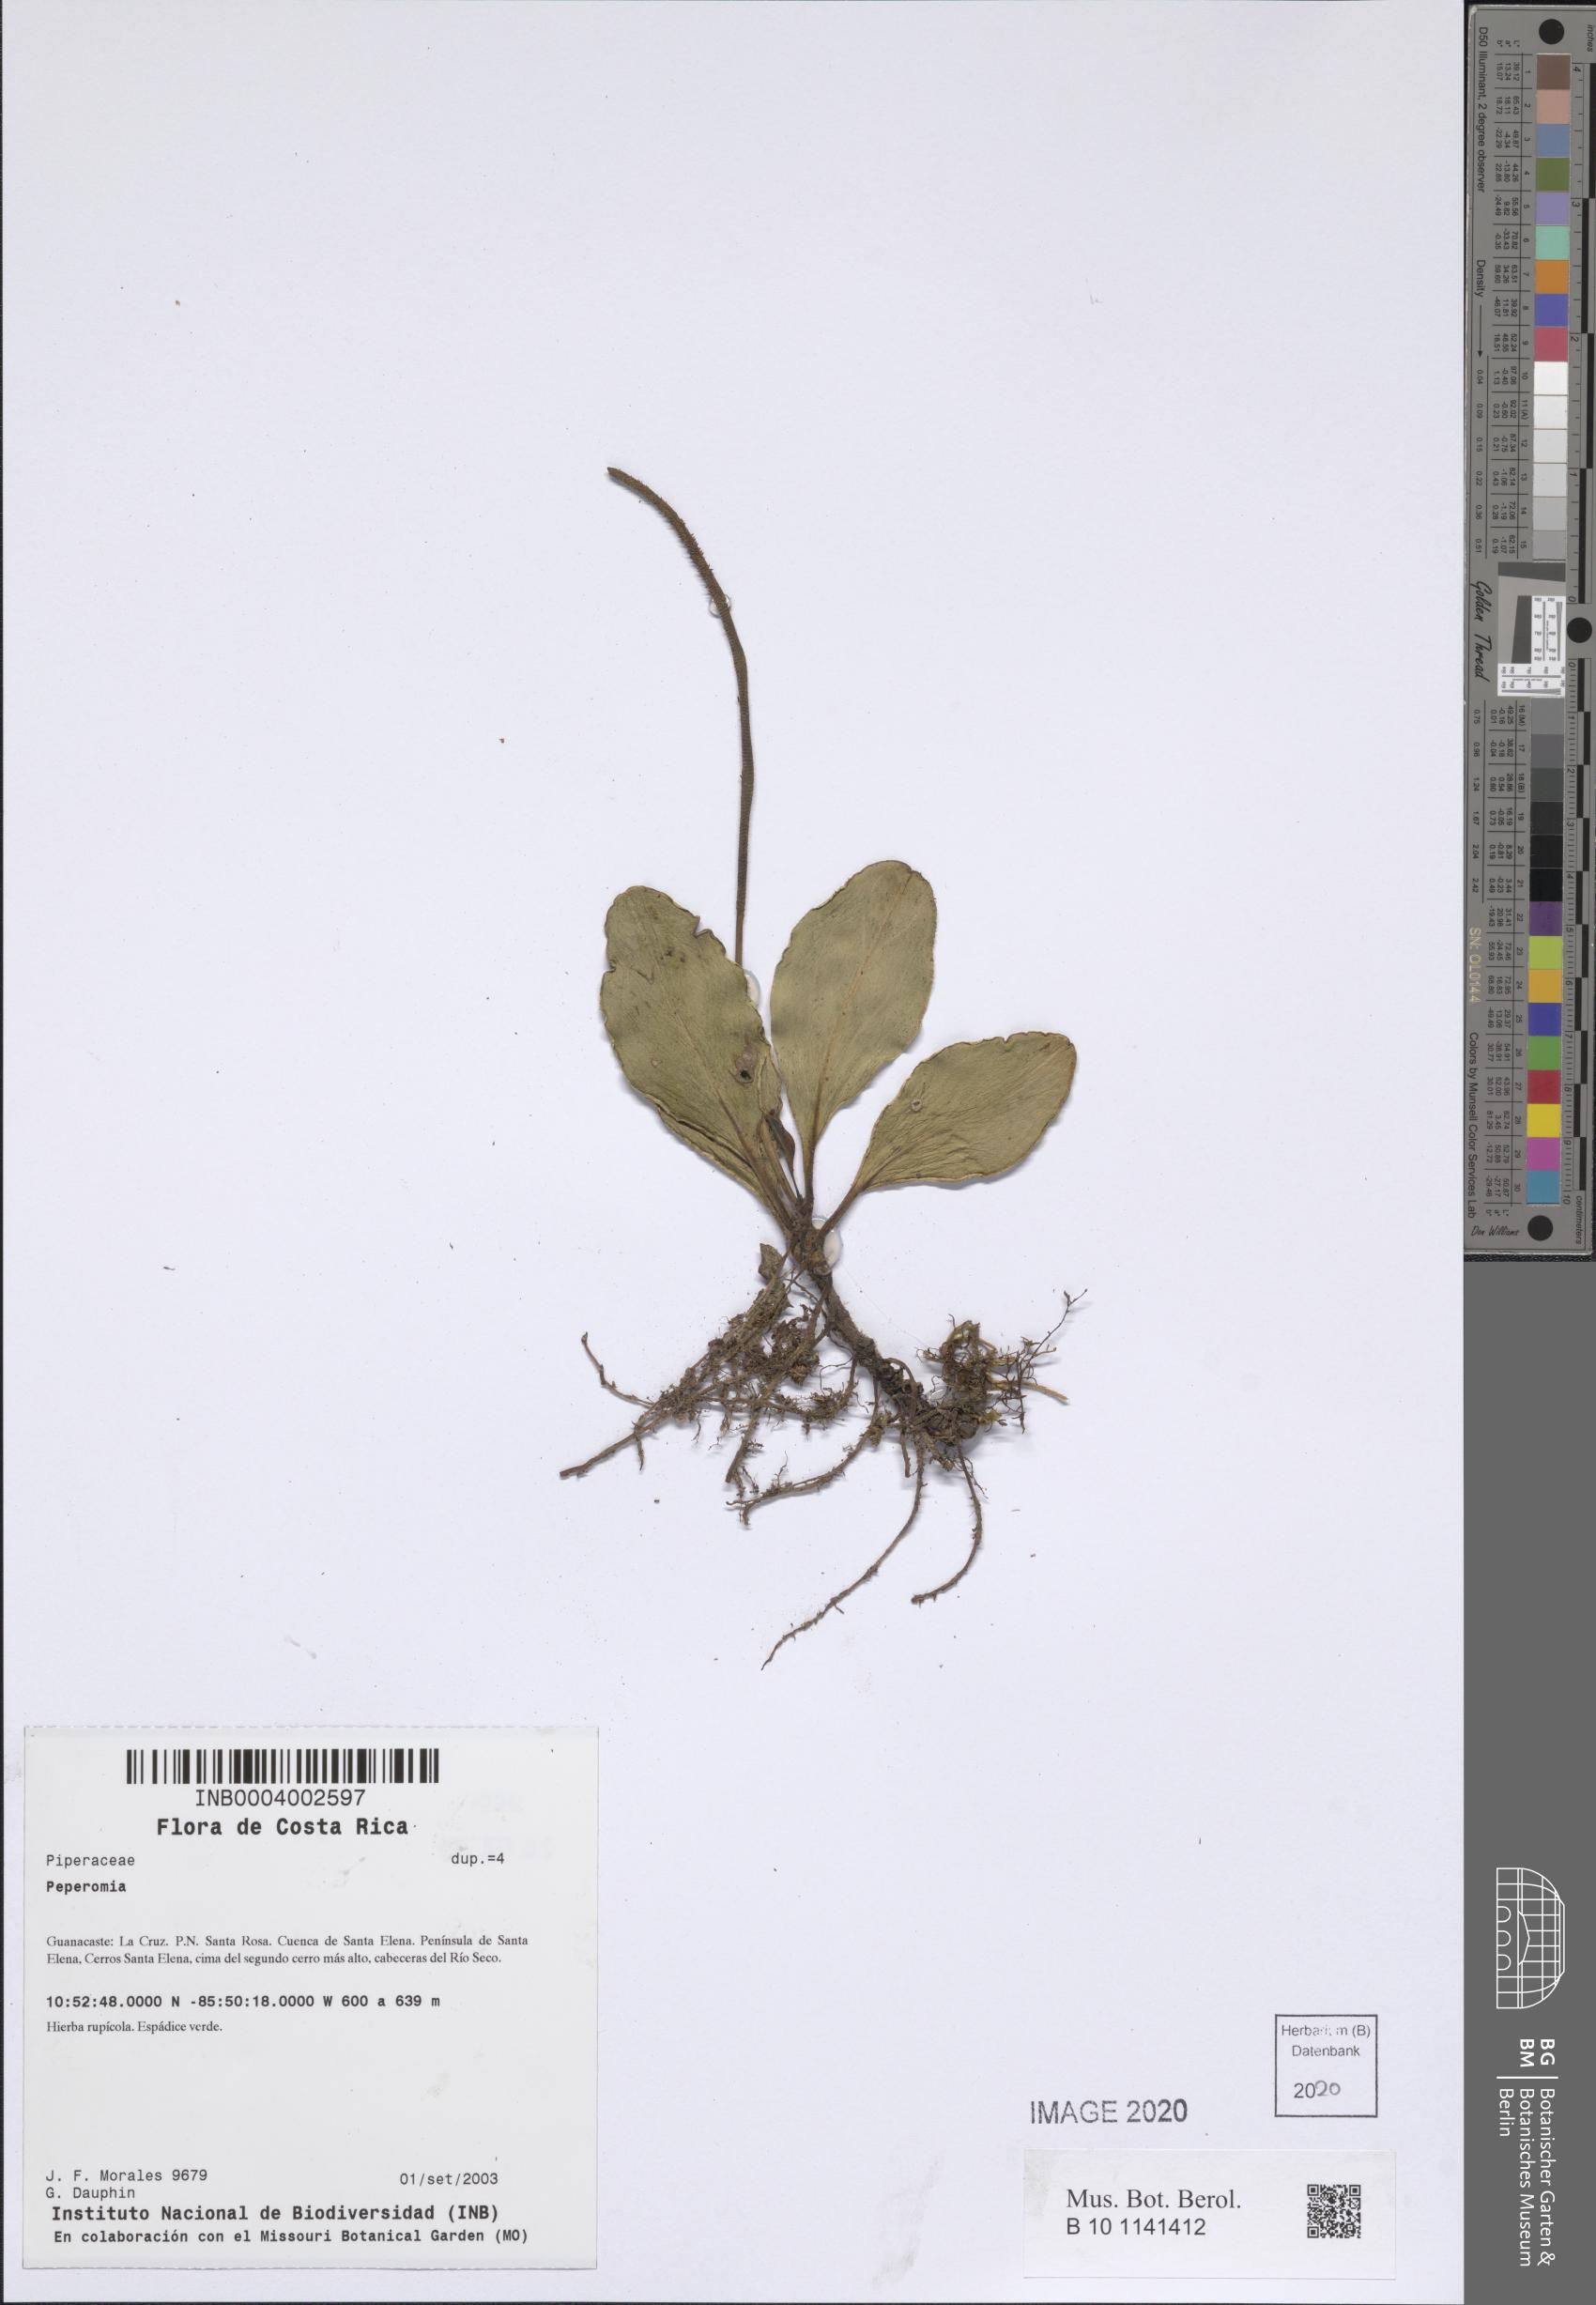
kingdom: Plantae
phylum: Tracheophyta
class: Magnoliopsida
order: Piperales
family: Piperaceae
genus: Peperomia
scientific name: Peperomia
